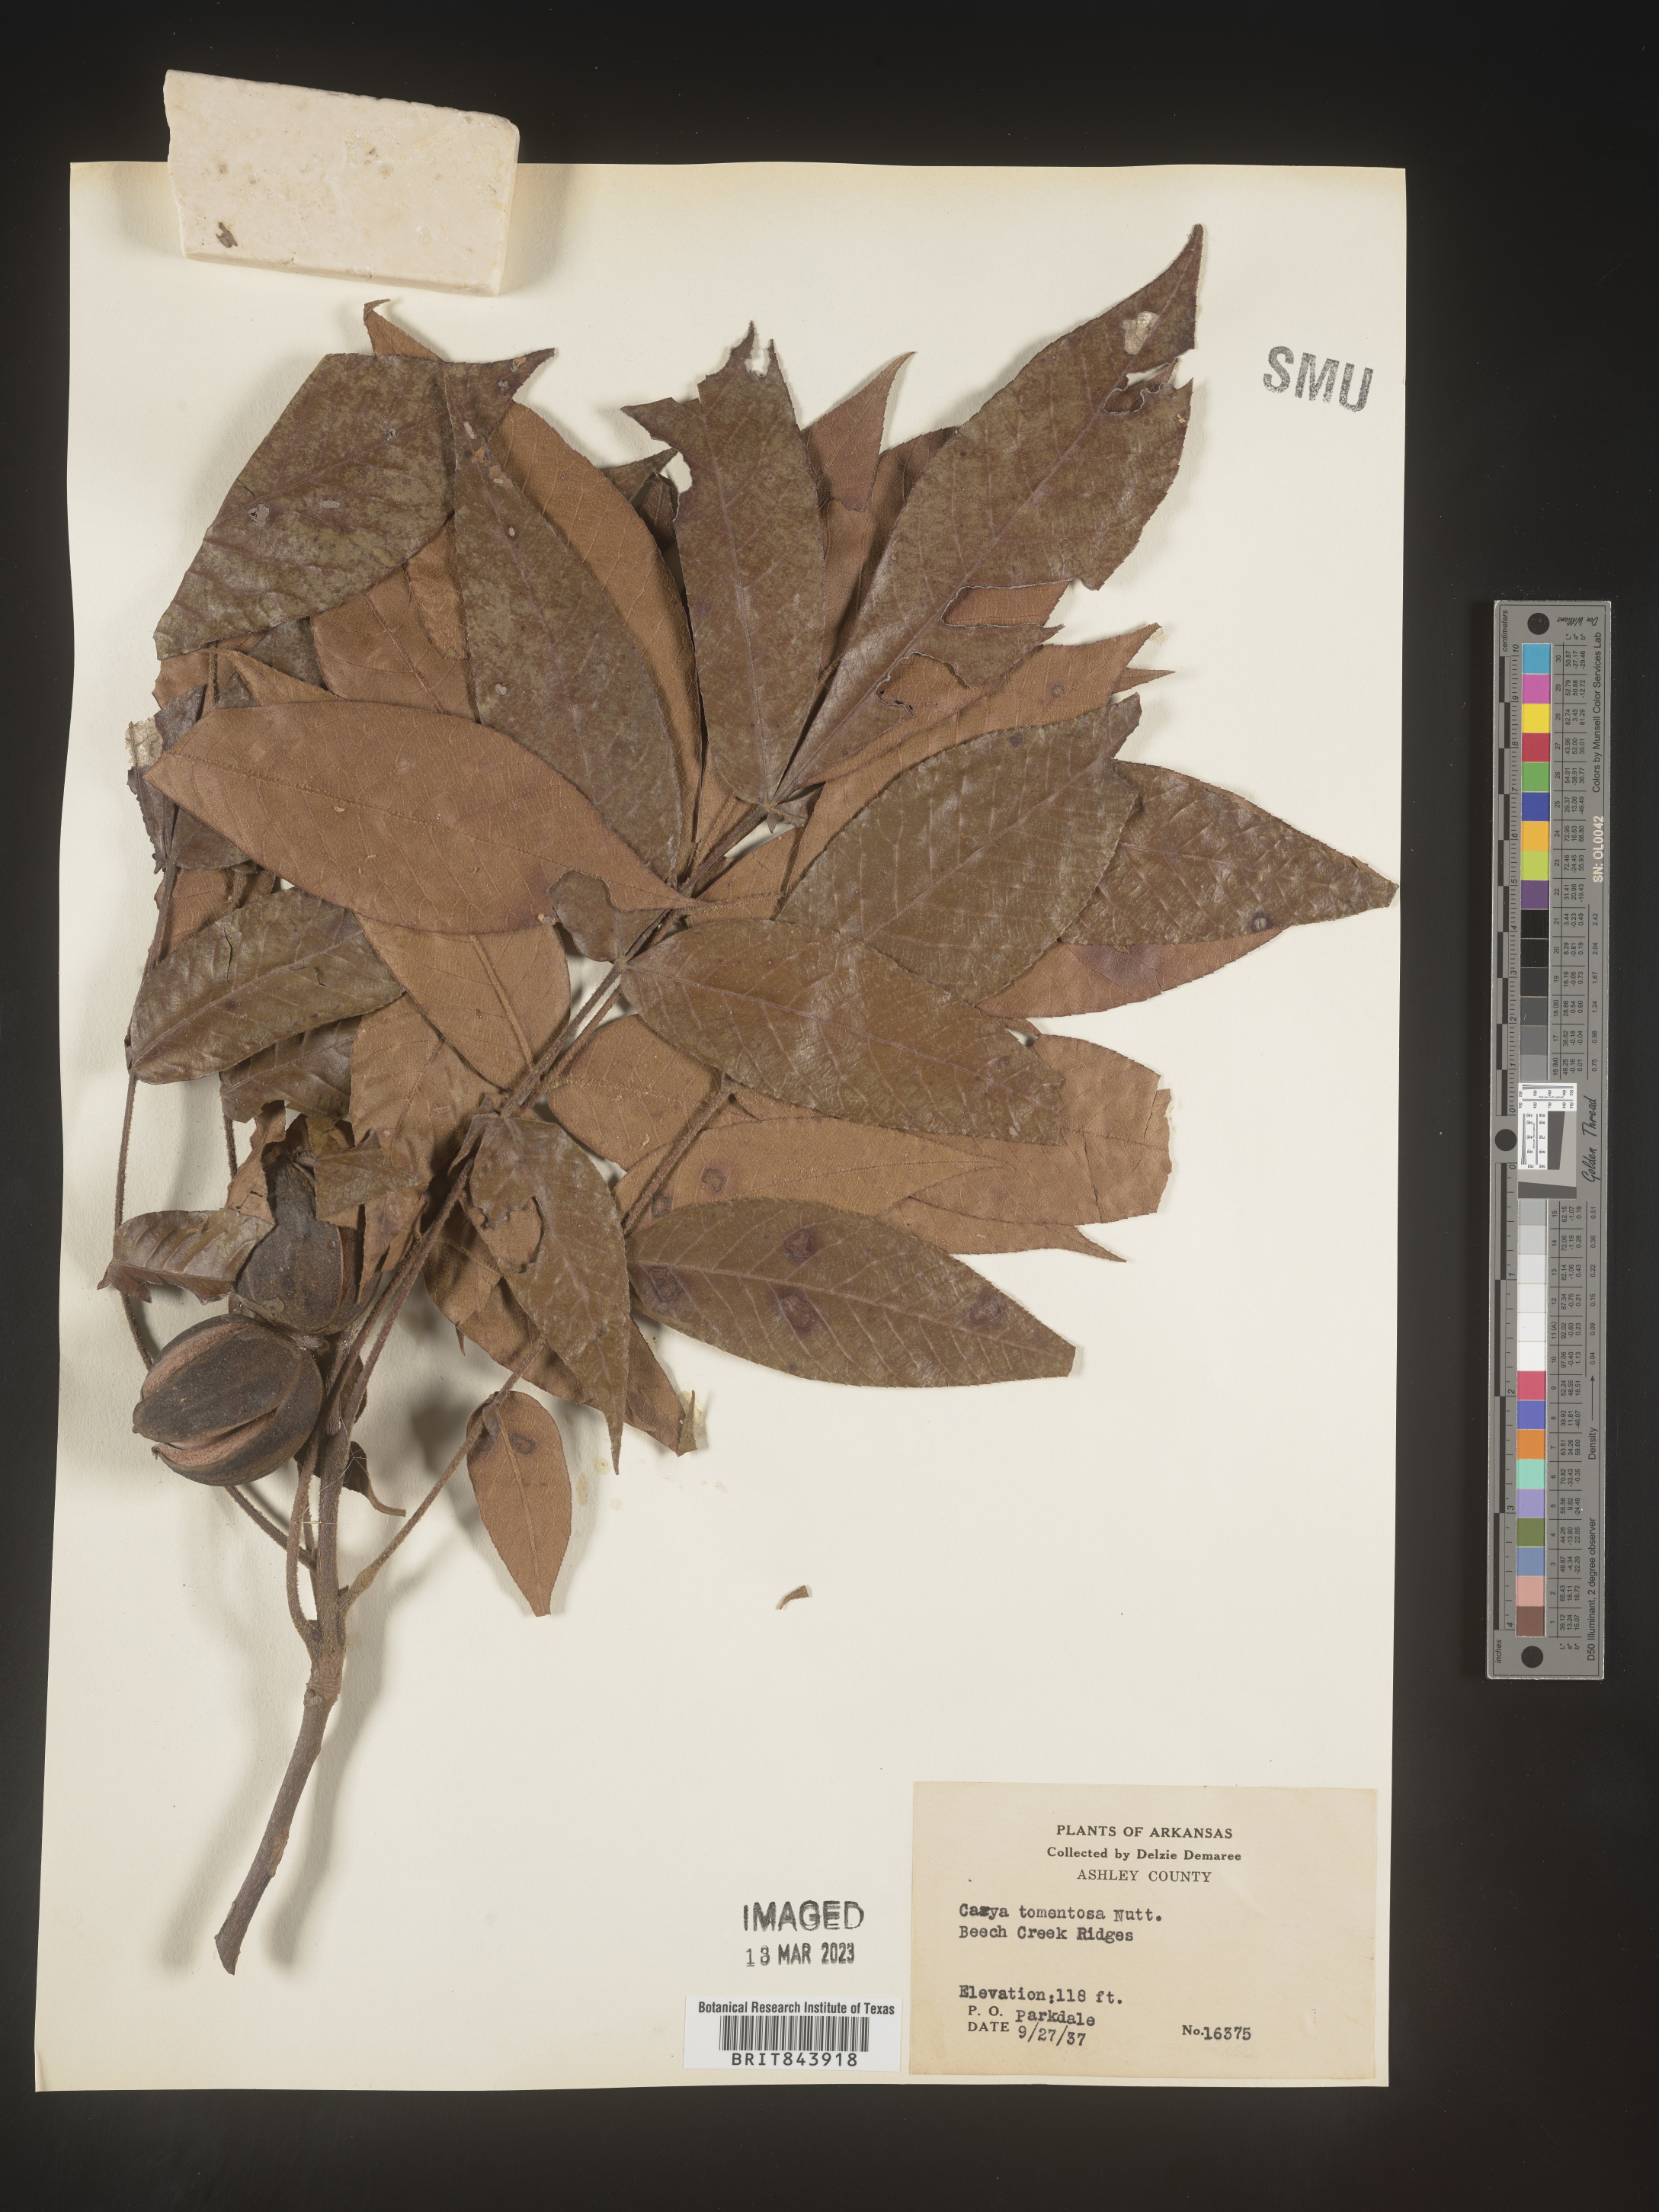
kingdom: Plantae
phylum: Tracheophyta
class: Magnoliopsida
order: Fagales
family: Juglandaceae
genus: Carya
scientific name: Carya alba
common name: Mockernut hickory
